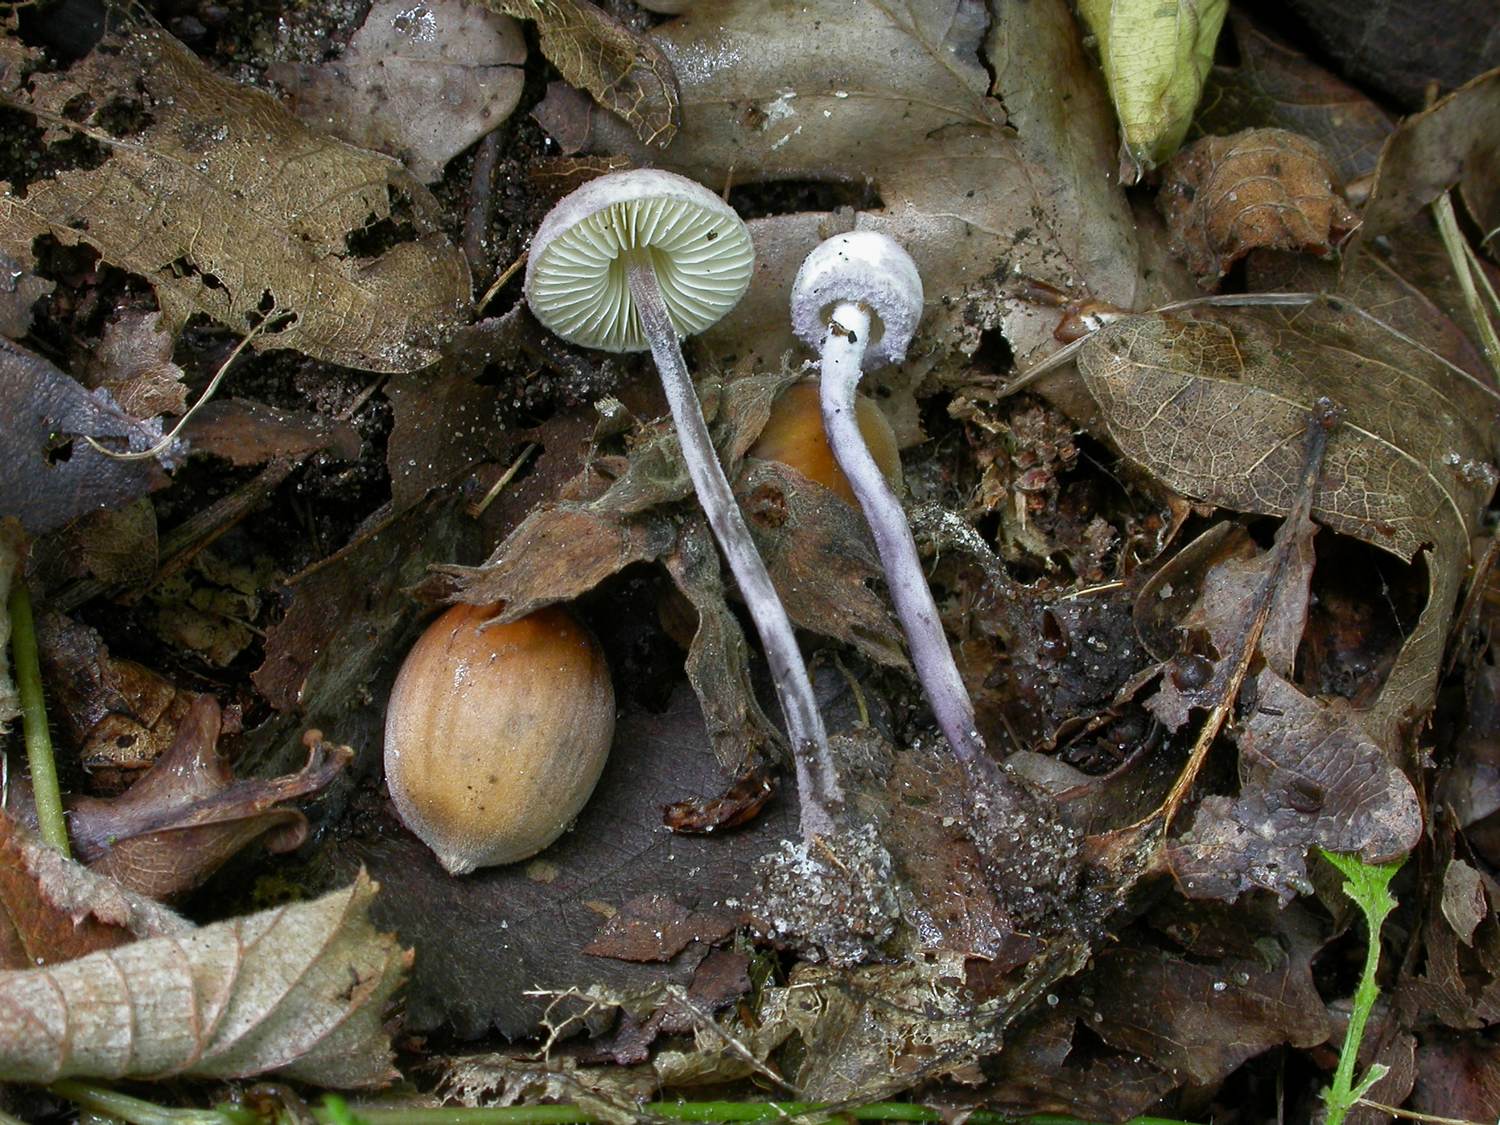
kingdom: Fungi
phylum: Basidiomycota
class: Agaricomycetes
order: Agaricales
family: Agaricaceae
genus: Cystolepiota
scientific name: Cystolepiota bucknallii
